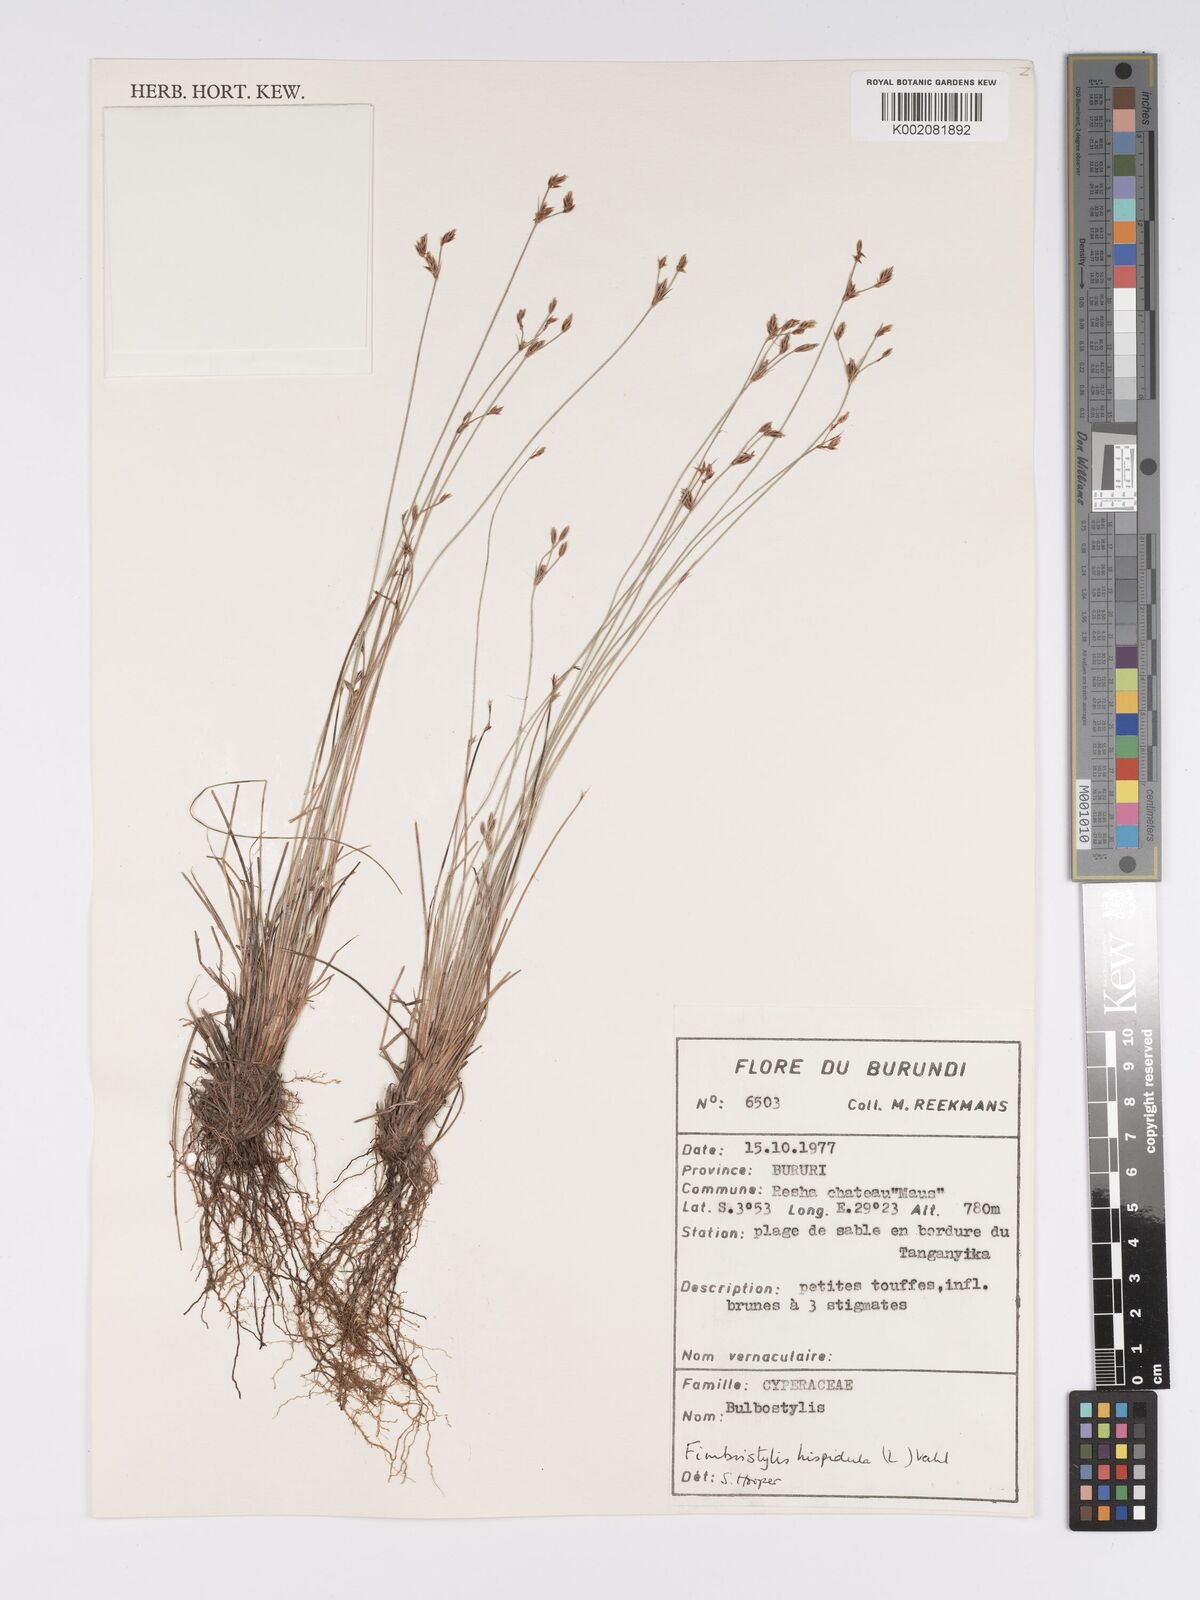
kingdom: Plantae
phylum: Tracheophyta
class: Liliopsida
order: Poales
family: Cyperaceae
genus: Bulbostylis
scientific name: Bulbostylis hispidula
